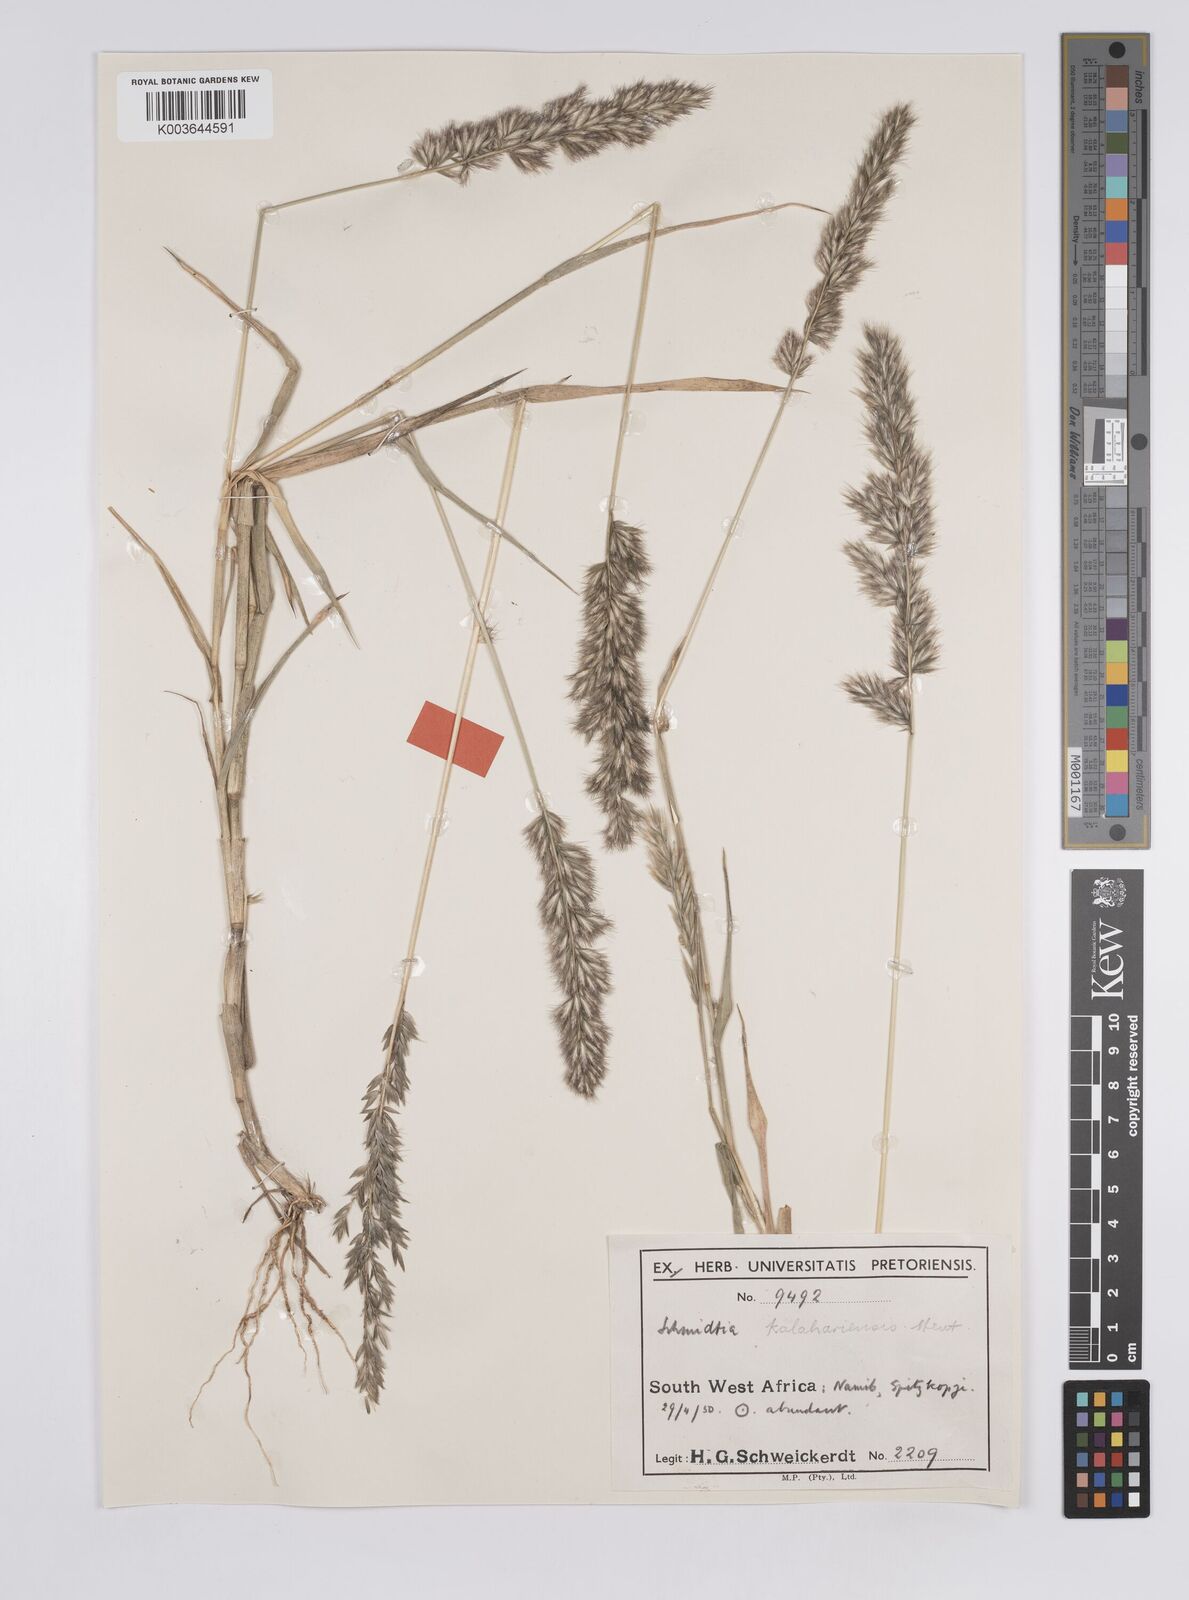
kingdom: Plantae
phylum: Tracheophyta
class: Liliopsida
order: Poales
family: Poaceae
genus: Schmidtia
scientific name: Schmidtia kalahariensis
